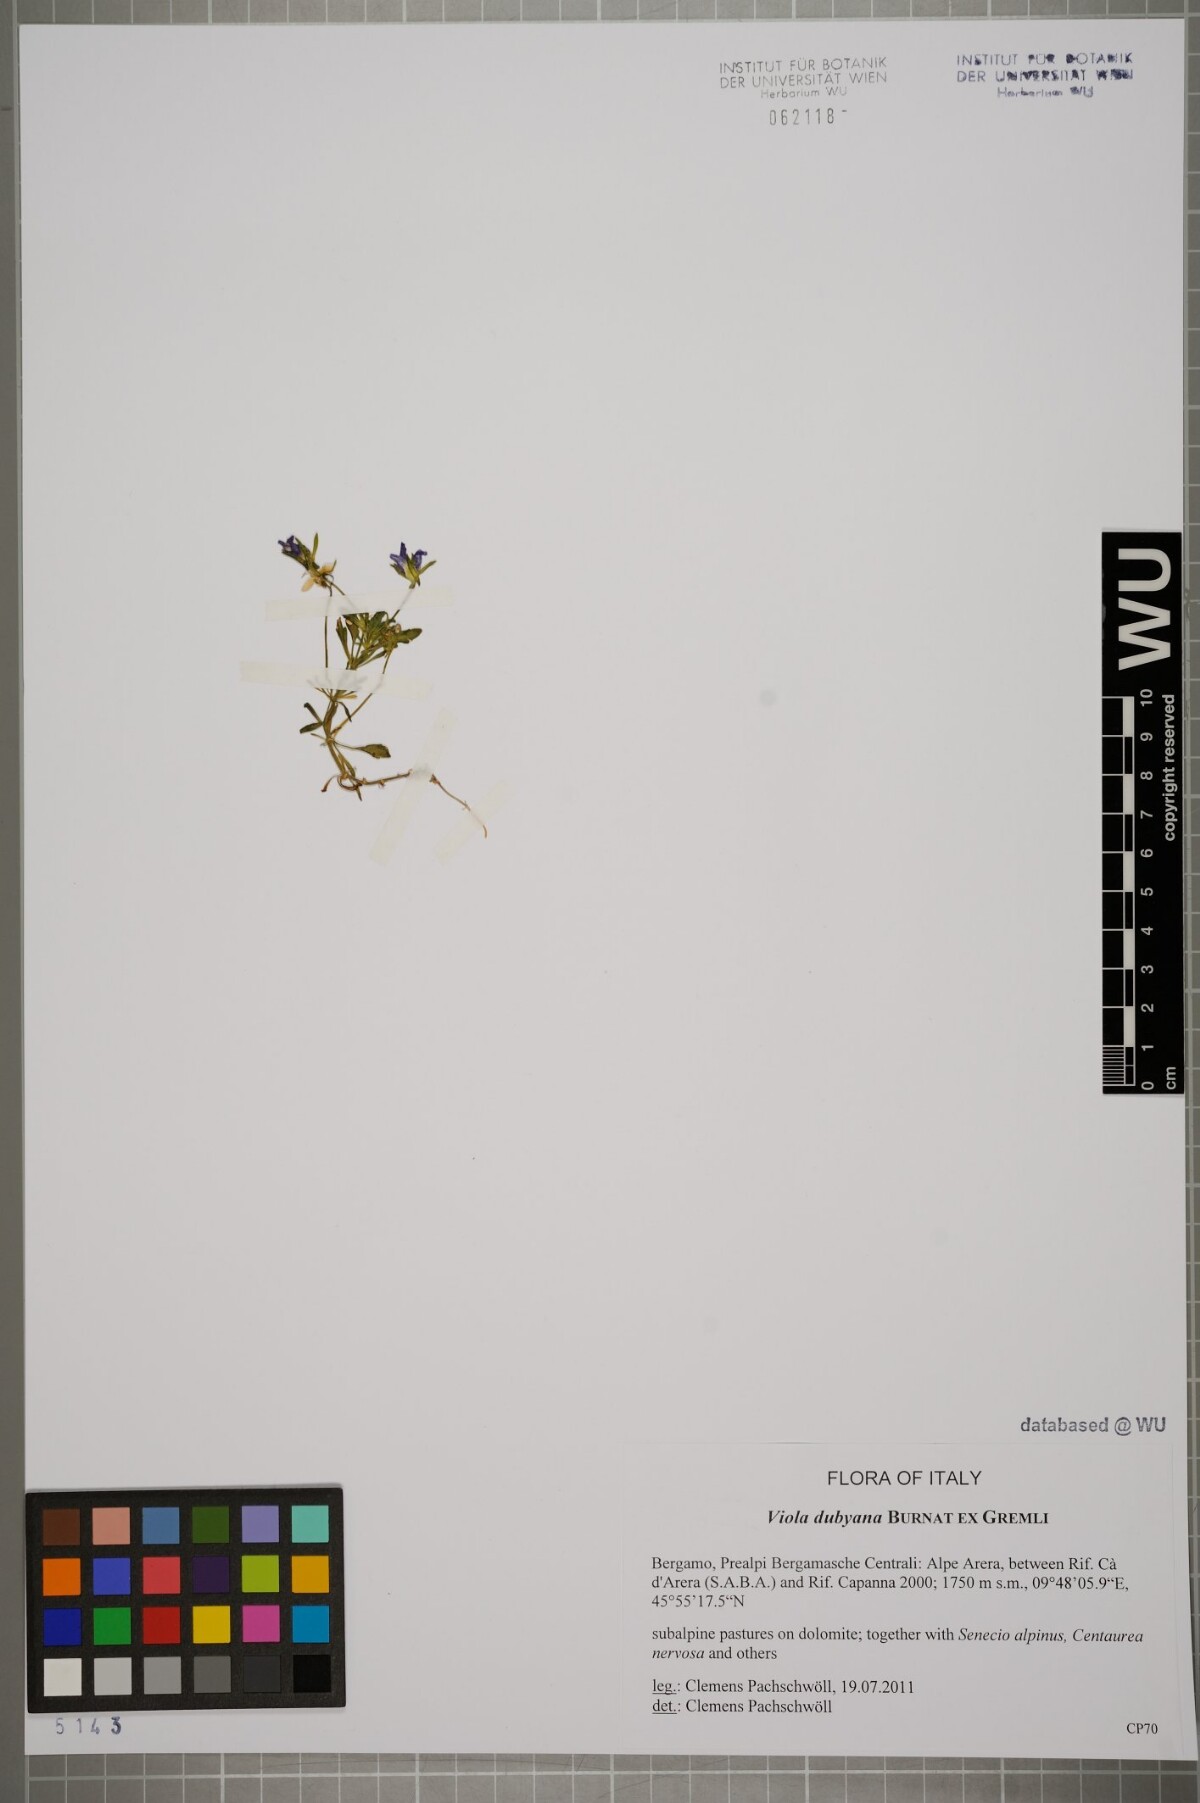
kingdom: Plantae
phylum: Tracheophyta
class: Magnoliopsida
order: Malpighiales
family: Violaceae
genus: Viola
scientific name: Viola dubyana
